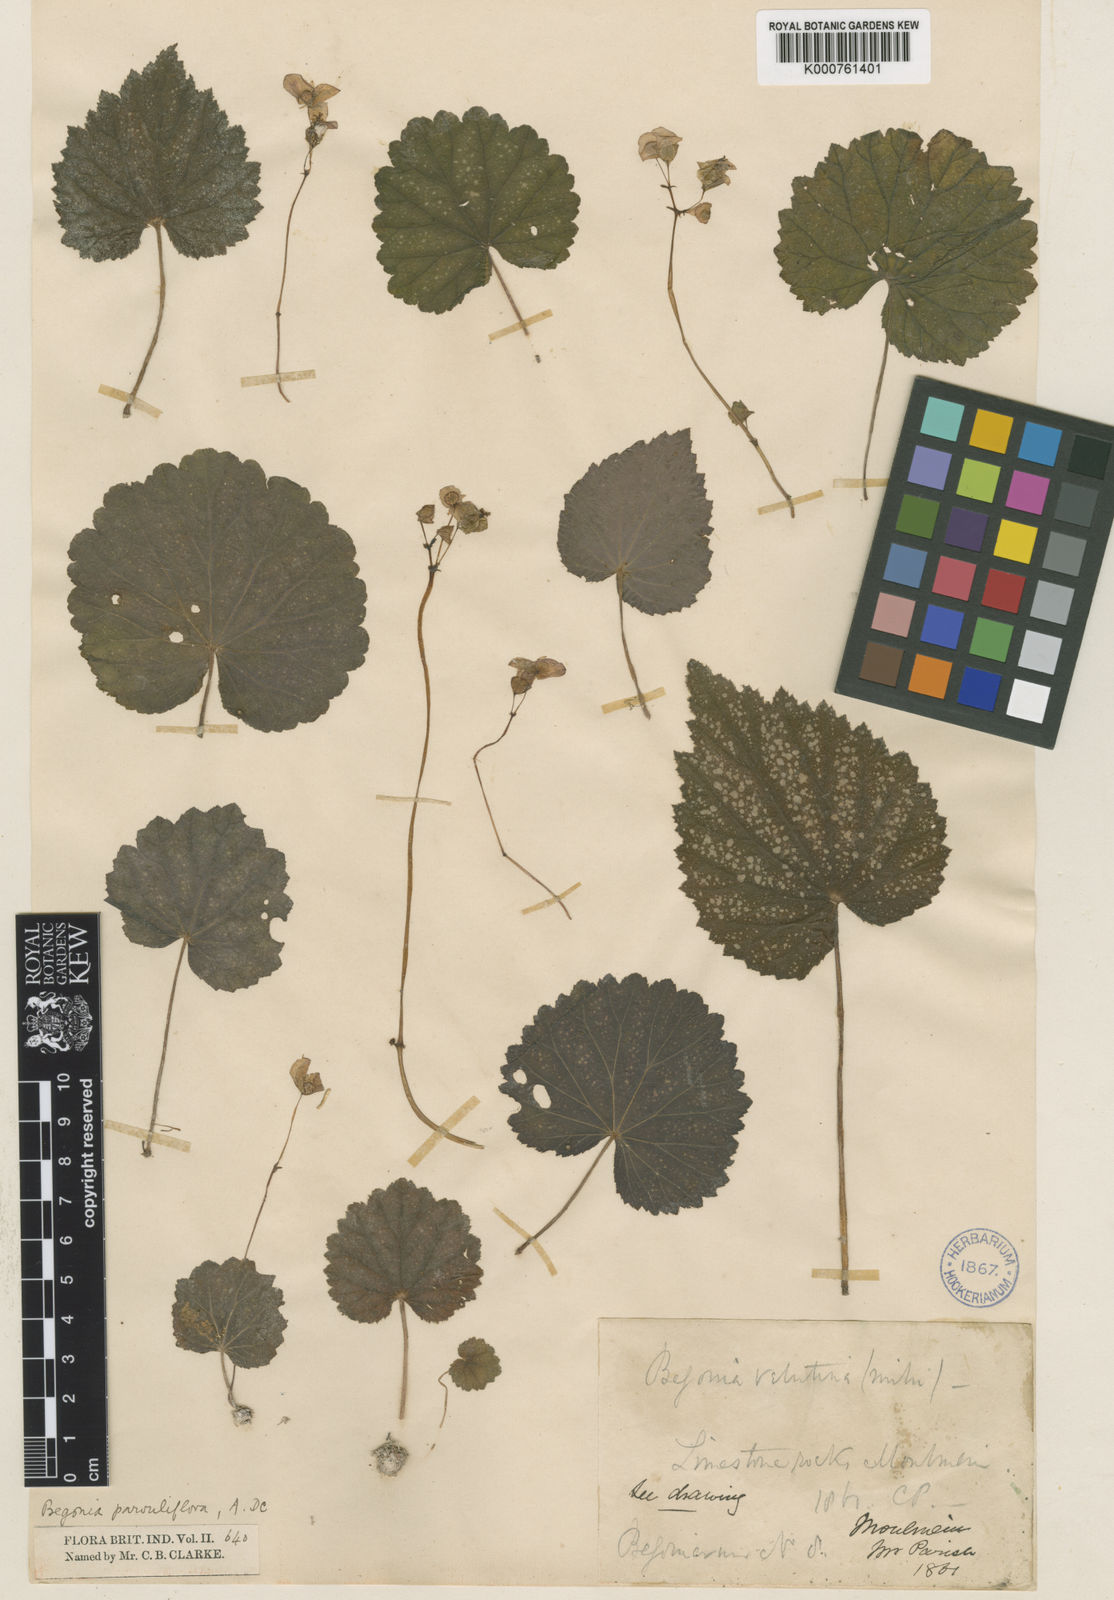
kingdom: Plantae
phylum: Tracheophyta
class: Magnoliopsida
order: Cucurbitales
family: Begoniaceae
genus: Begonia
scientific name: Begonia parvuliflora
